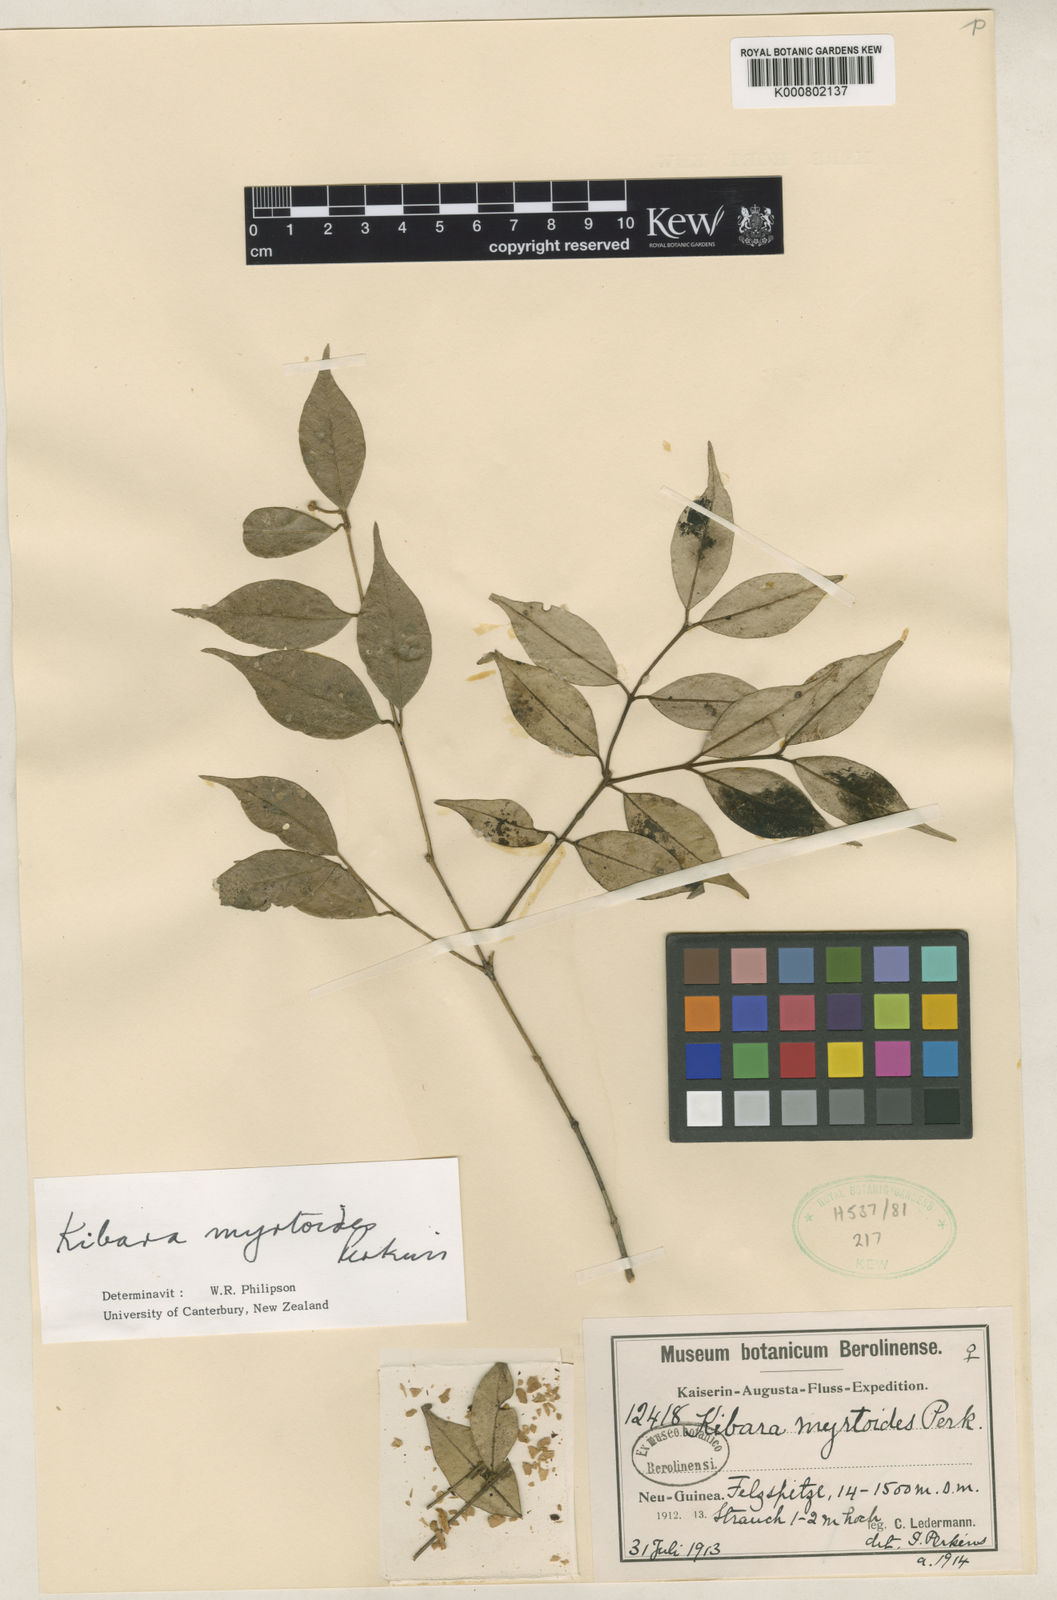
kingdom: Plantae
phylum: Tracheophyta
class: Magnoliopsida
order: Laurales
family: Monimiaceae
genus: Kibara
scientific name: Kibara myrtoides
